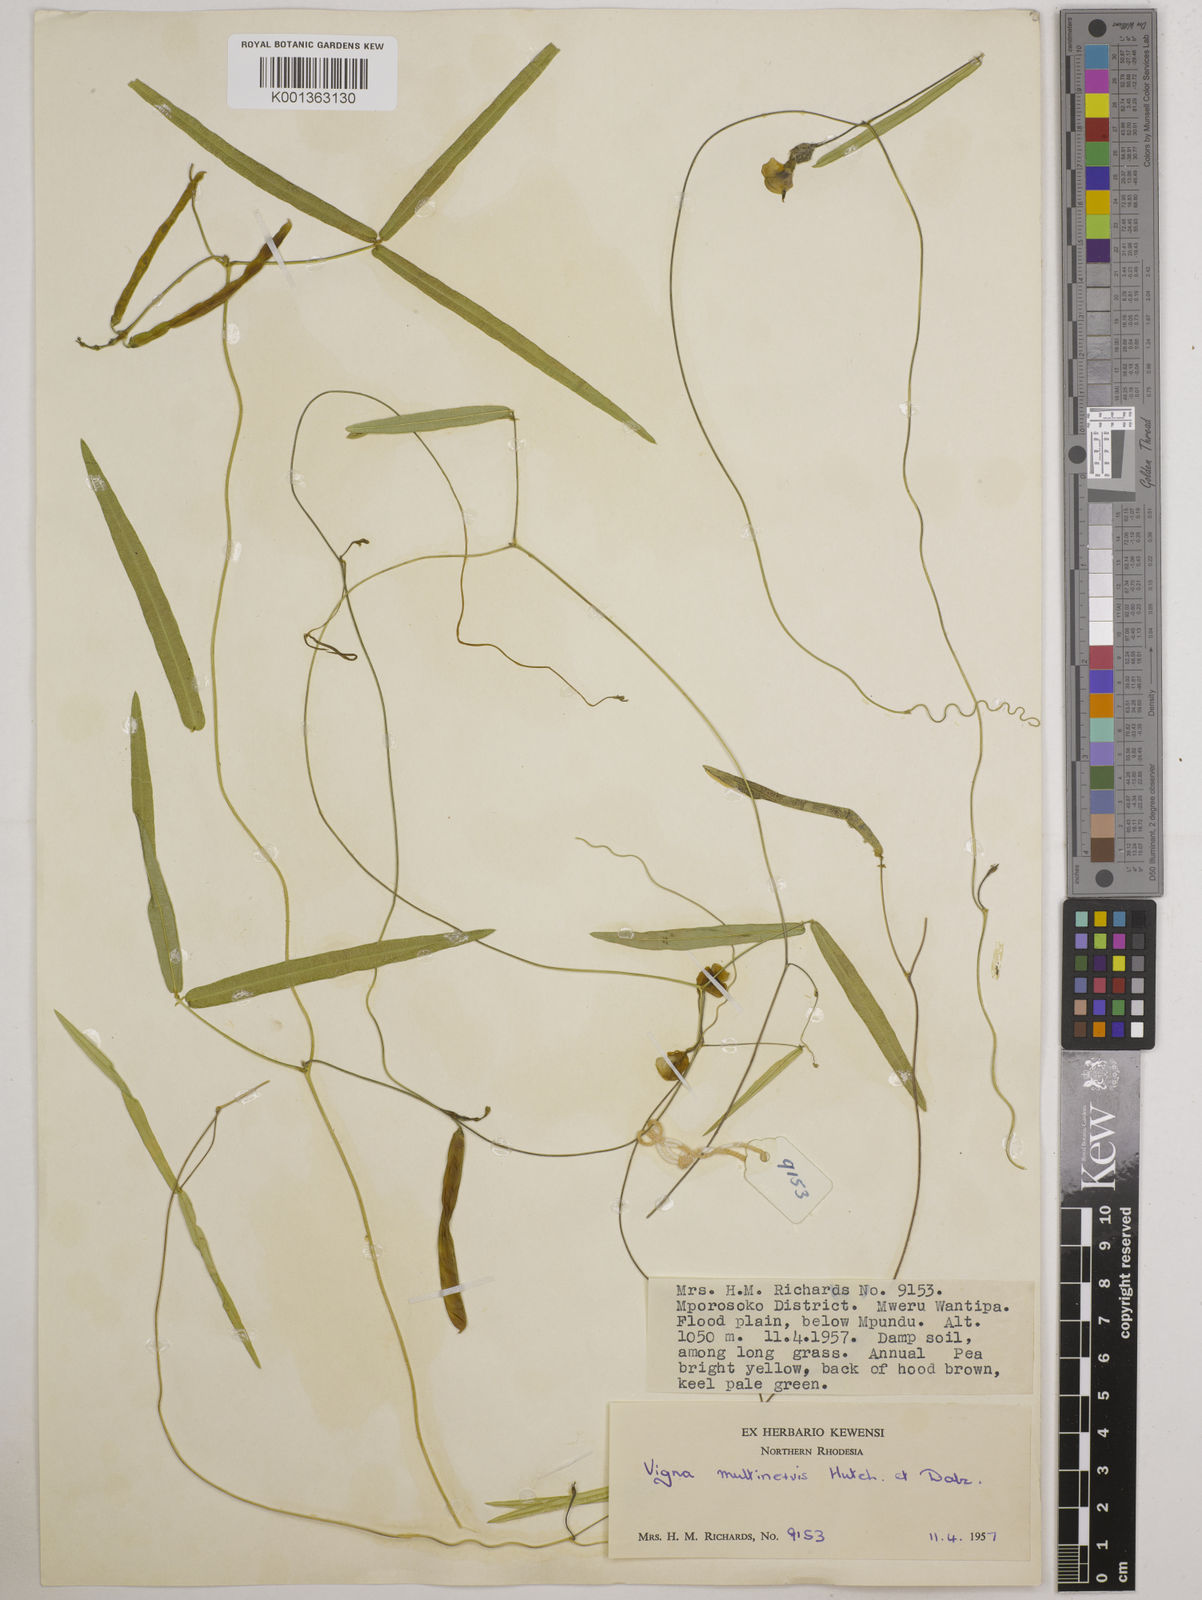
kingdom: Plantae
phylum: Tracheophyta
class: Magnoliopsida
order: Fabales
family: Fabaceae
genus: Vigna
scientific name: Vigna multinervis
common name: Fula-pulaar
